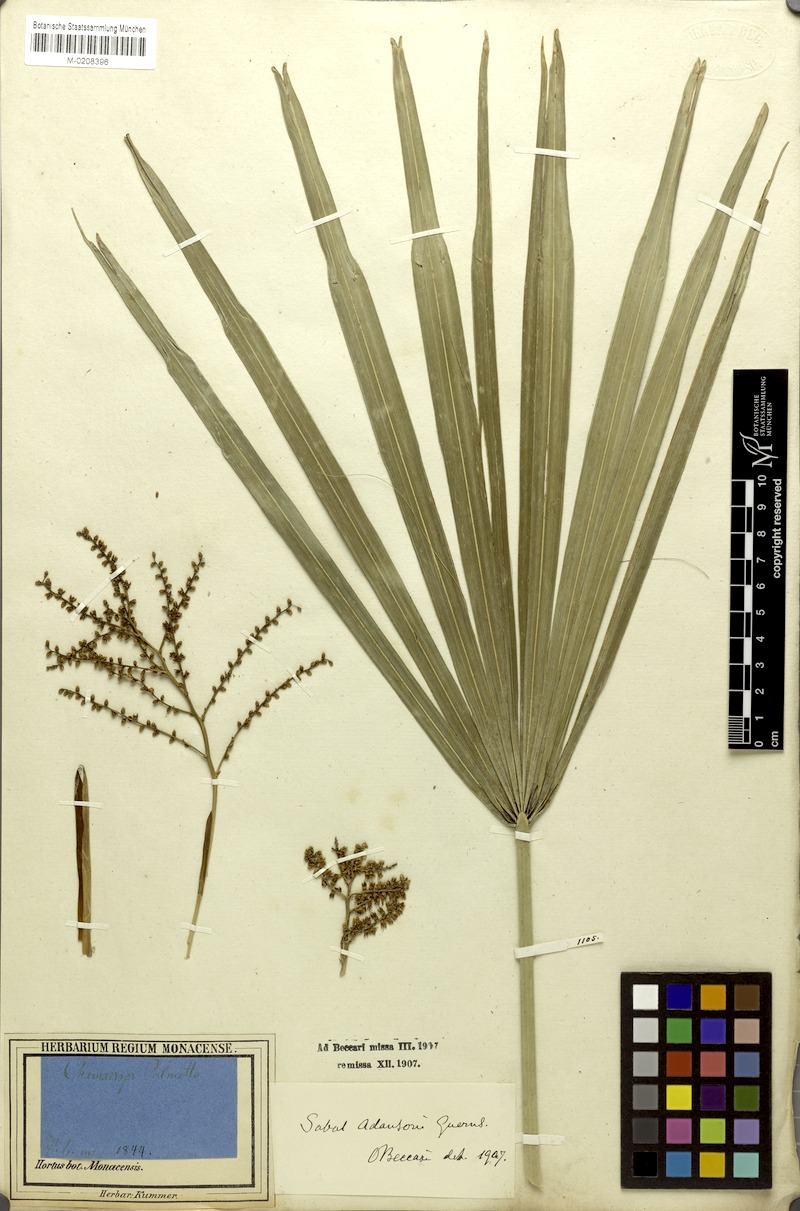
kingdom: Plantae
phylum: Tracheophyta
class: Liliopsida
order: Arecales
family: Arecaceae
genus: Sabal
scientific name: Sabal palmetto
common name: Blue palmetto
